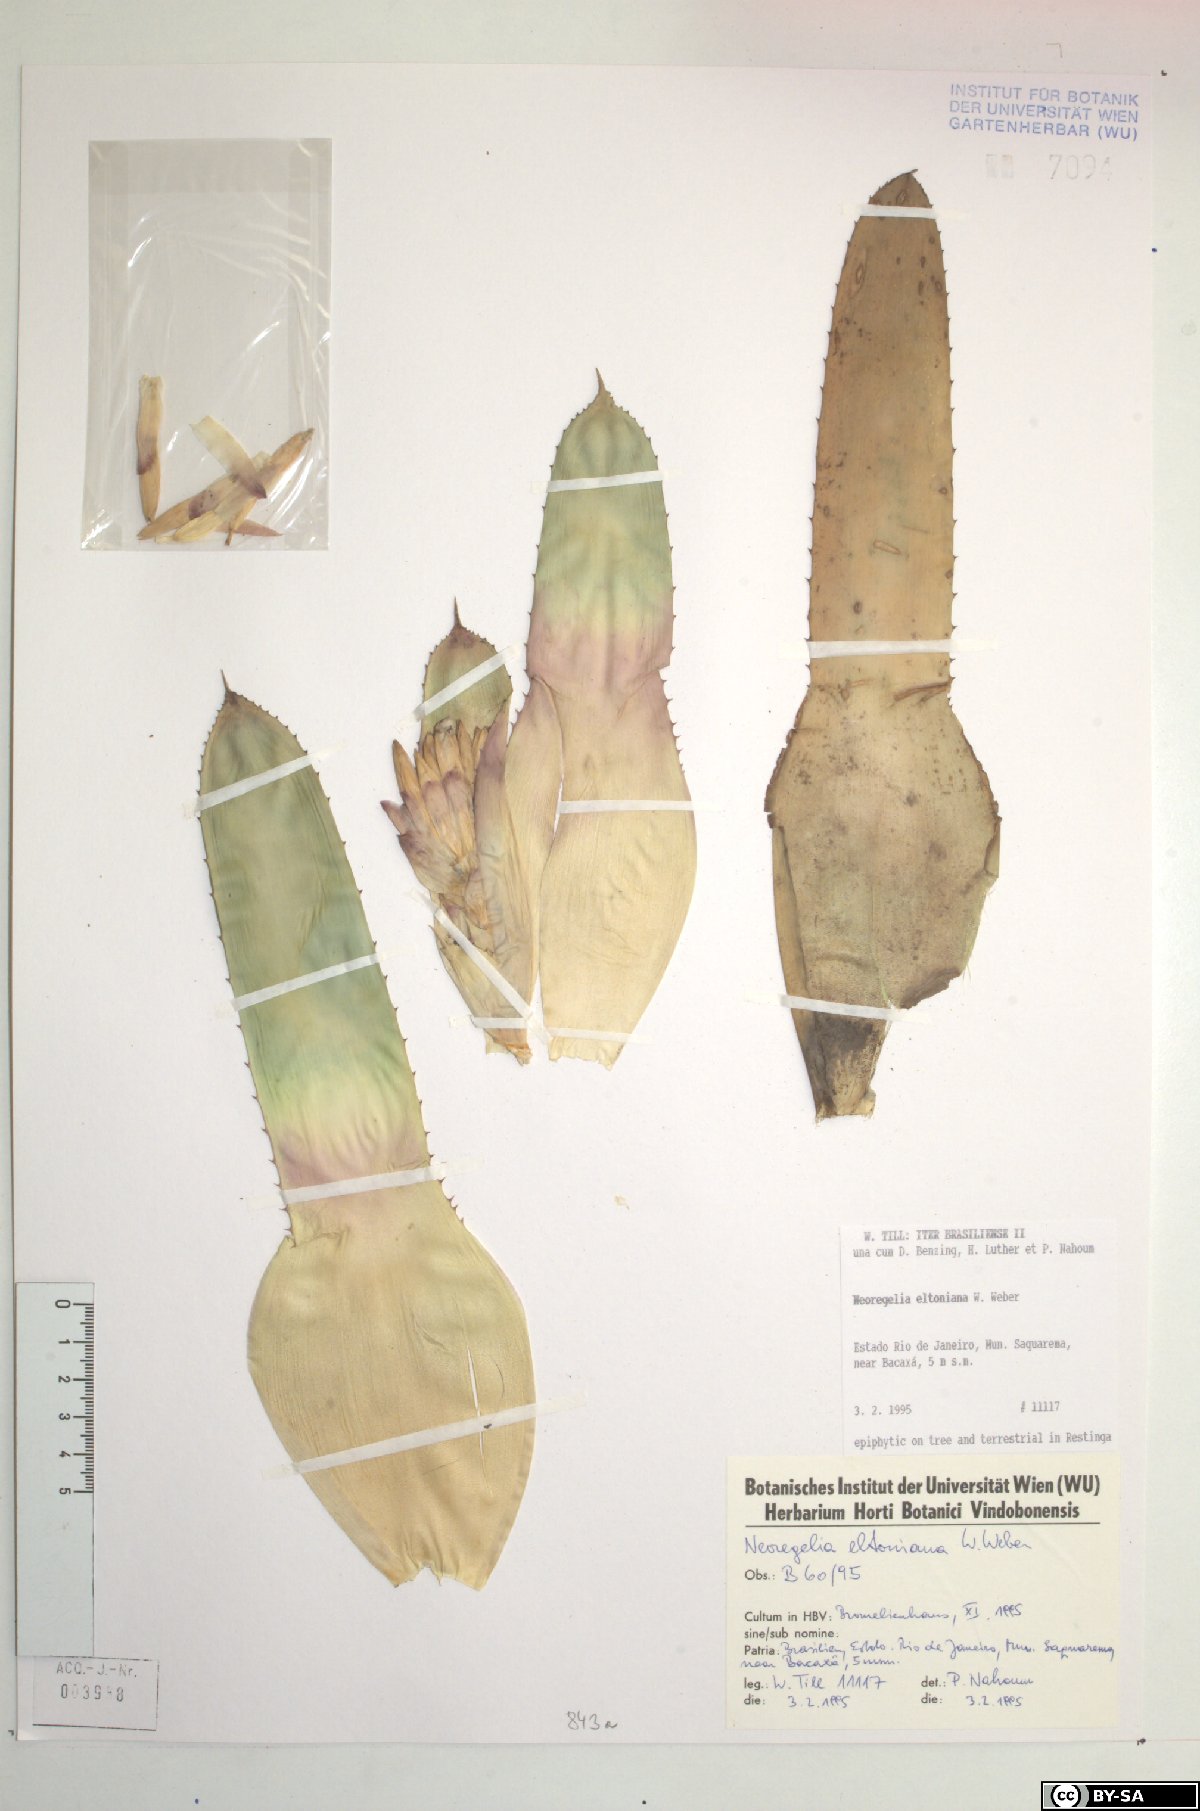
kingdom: Plantae
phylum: Tracheophyta
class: Liliopsida
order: Poales
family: Bromeliaceae
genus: Neoregelia
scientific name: Neoregelia eltoniana
